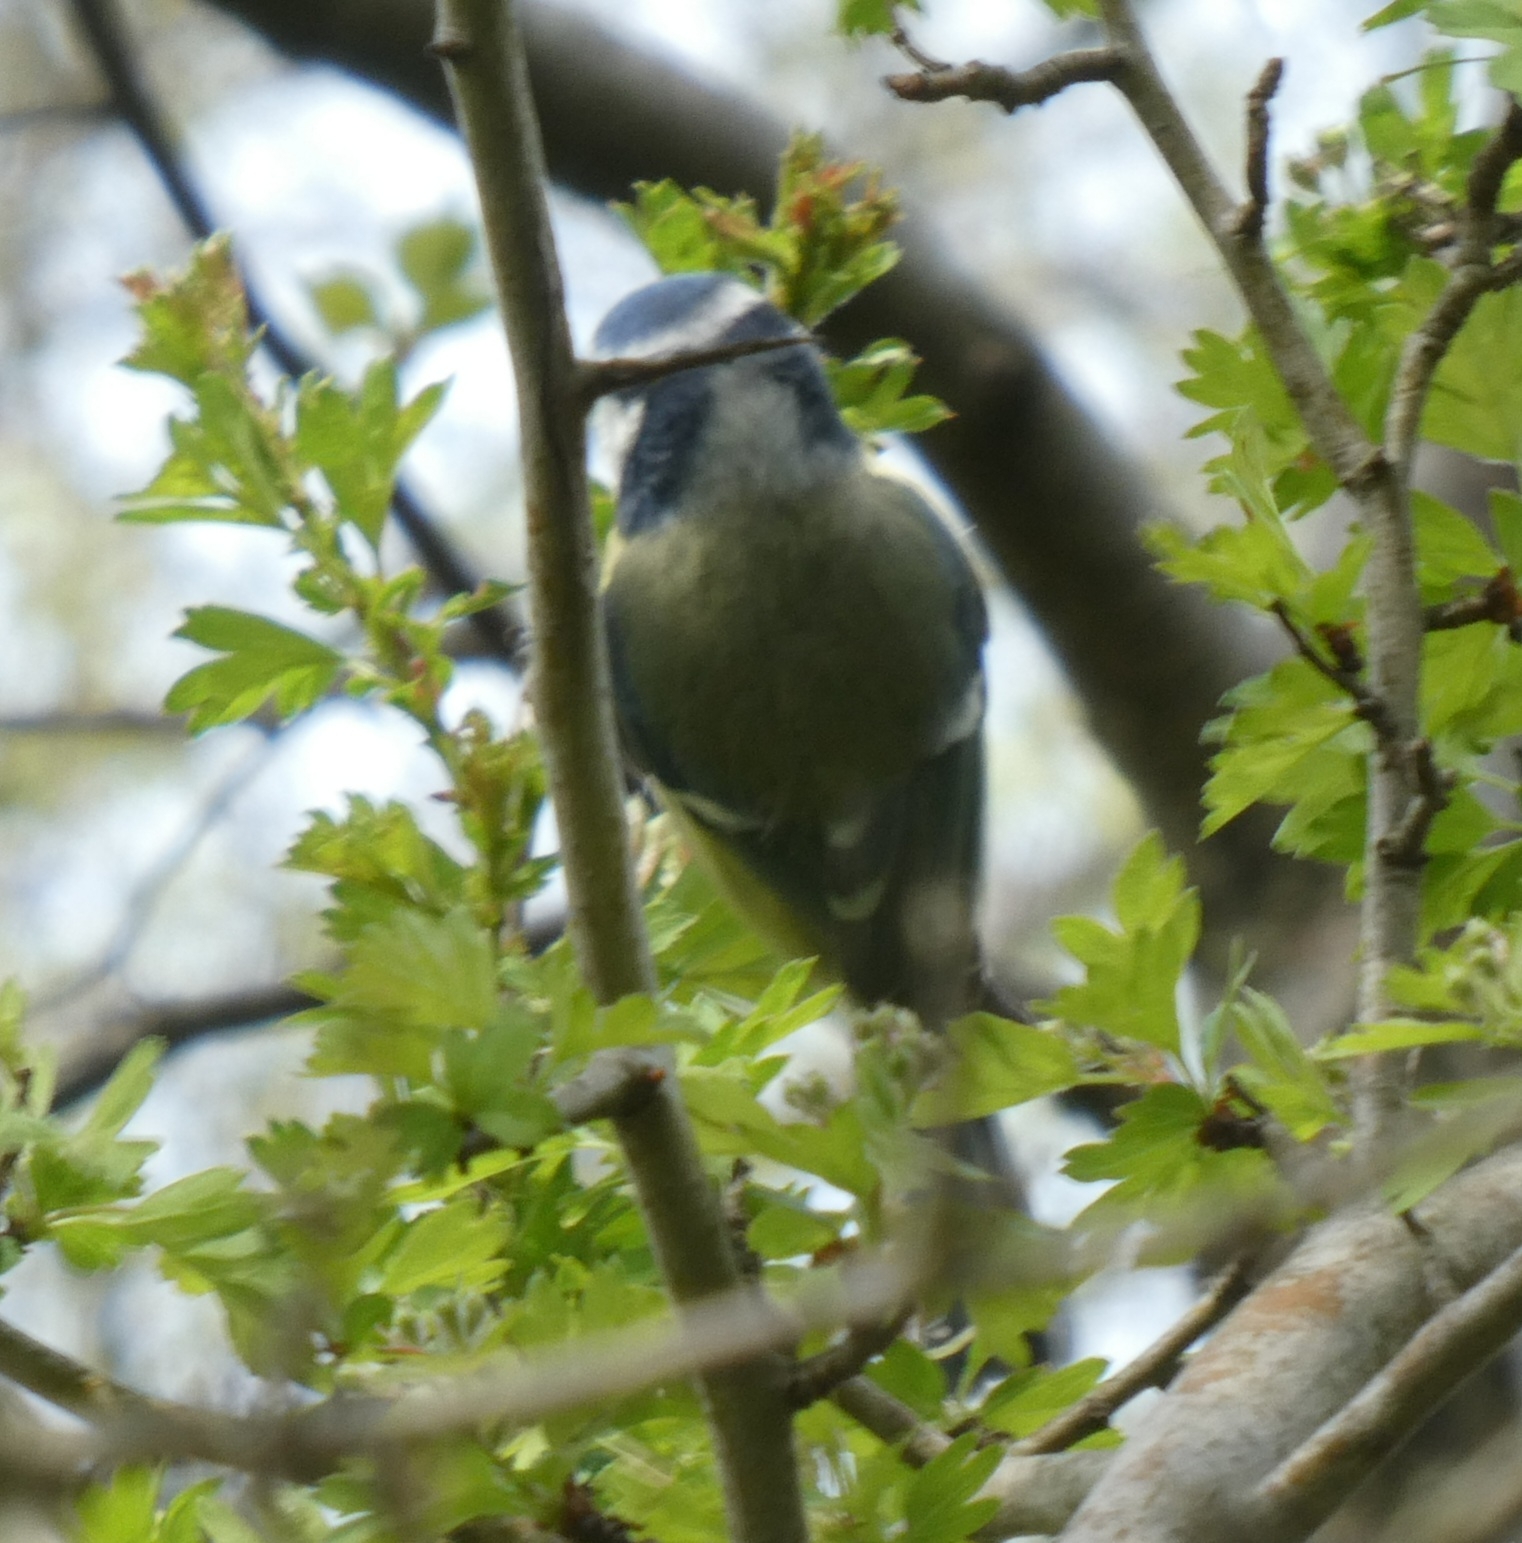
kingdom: Animalia
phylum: Chordata
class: Aves
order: Passeriformes
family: Paridae
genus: Cyanistes
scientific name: Cyanistes caeruleus
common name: Blåmejse
